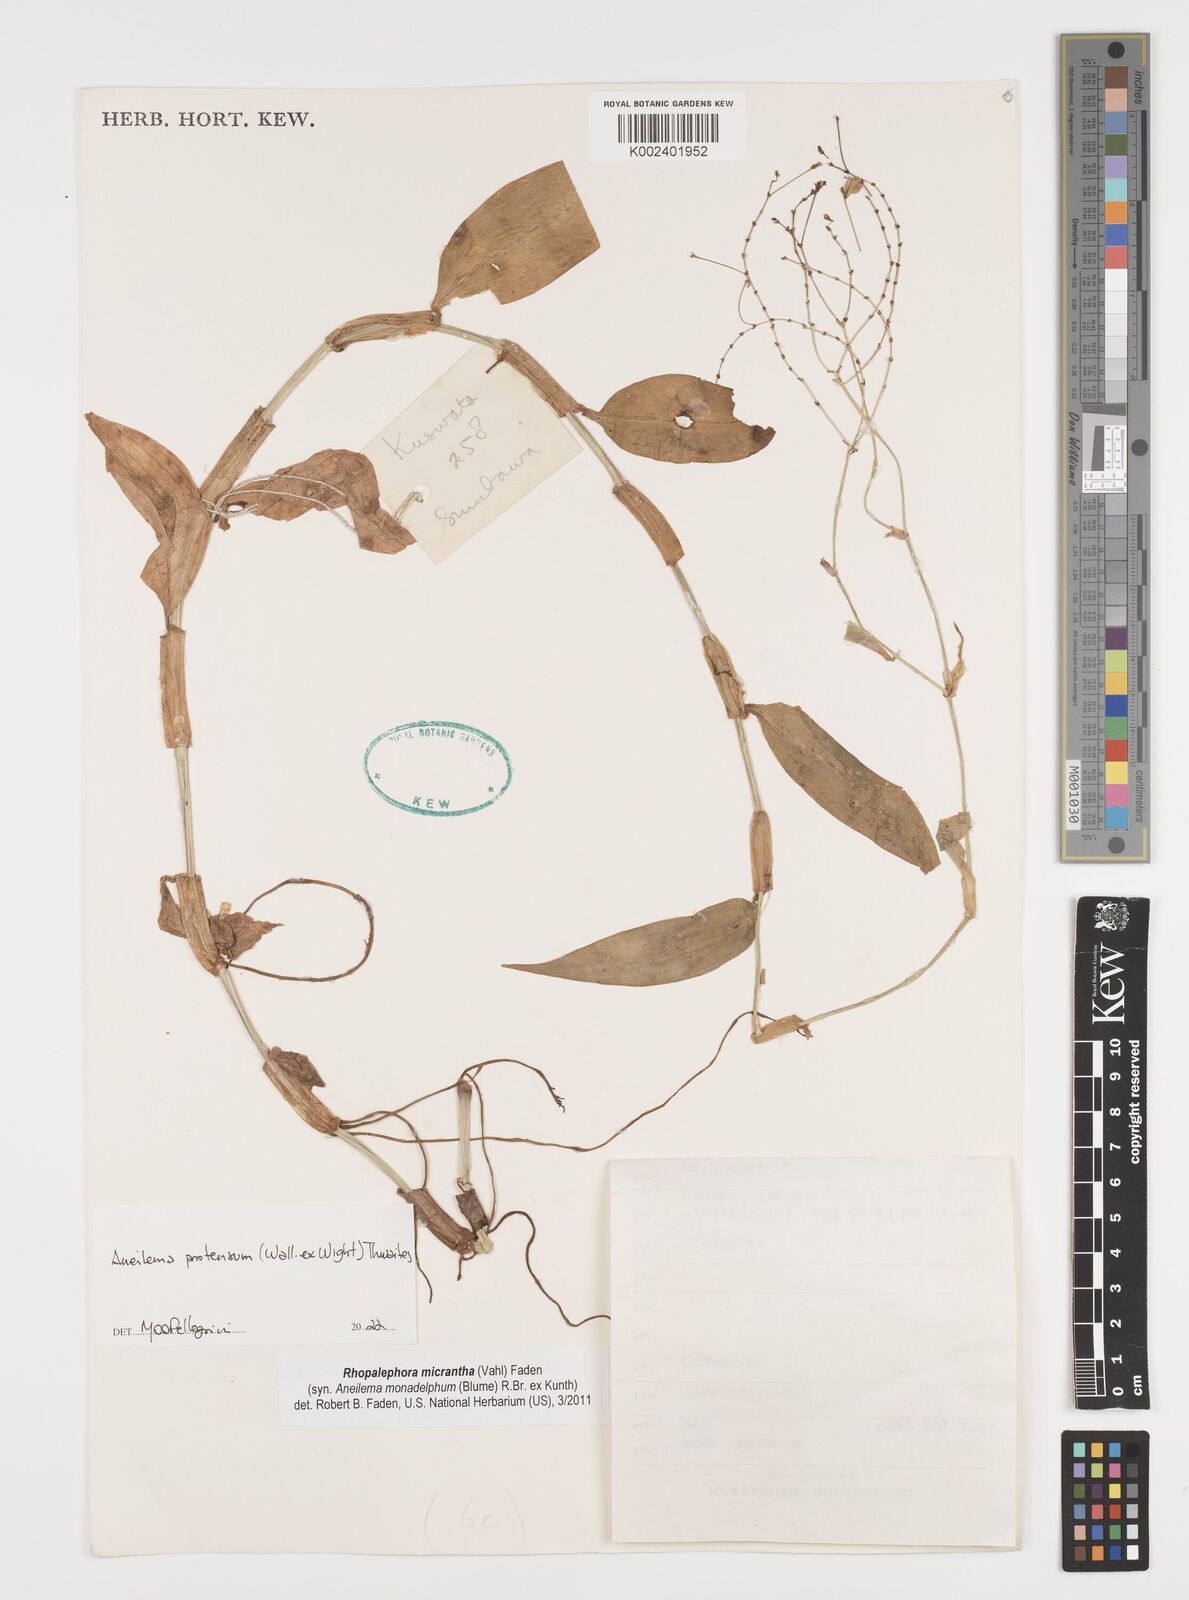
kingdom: Plantae
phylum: Tracheophyta
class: Liliopsida
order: Commelinales
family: Commelinaceae
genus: Rhopalephora
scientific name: Rhopalephora scaberrima
